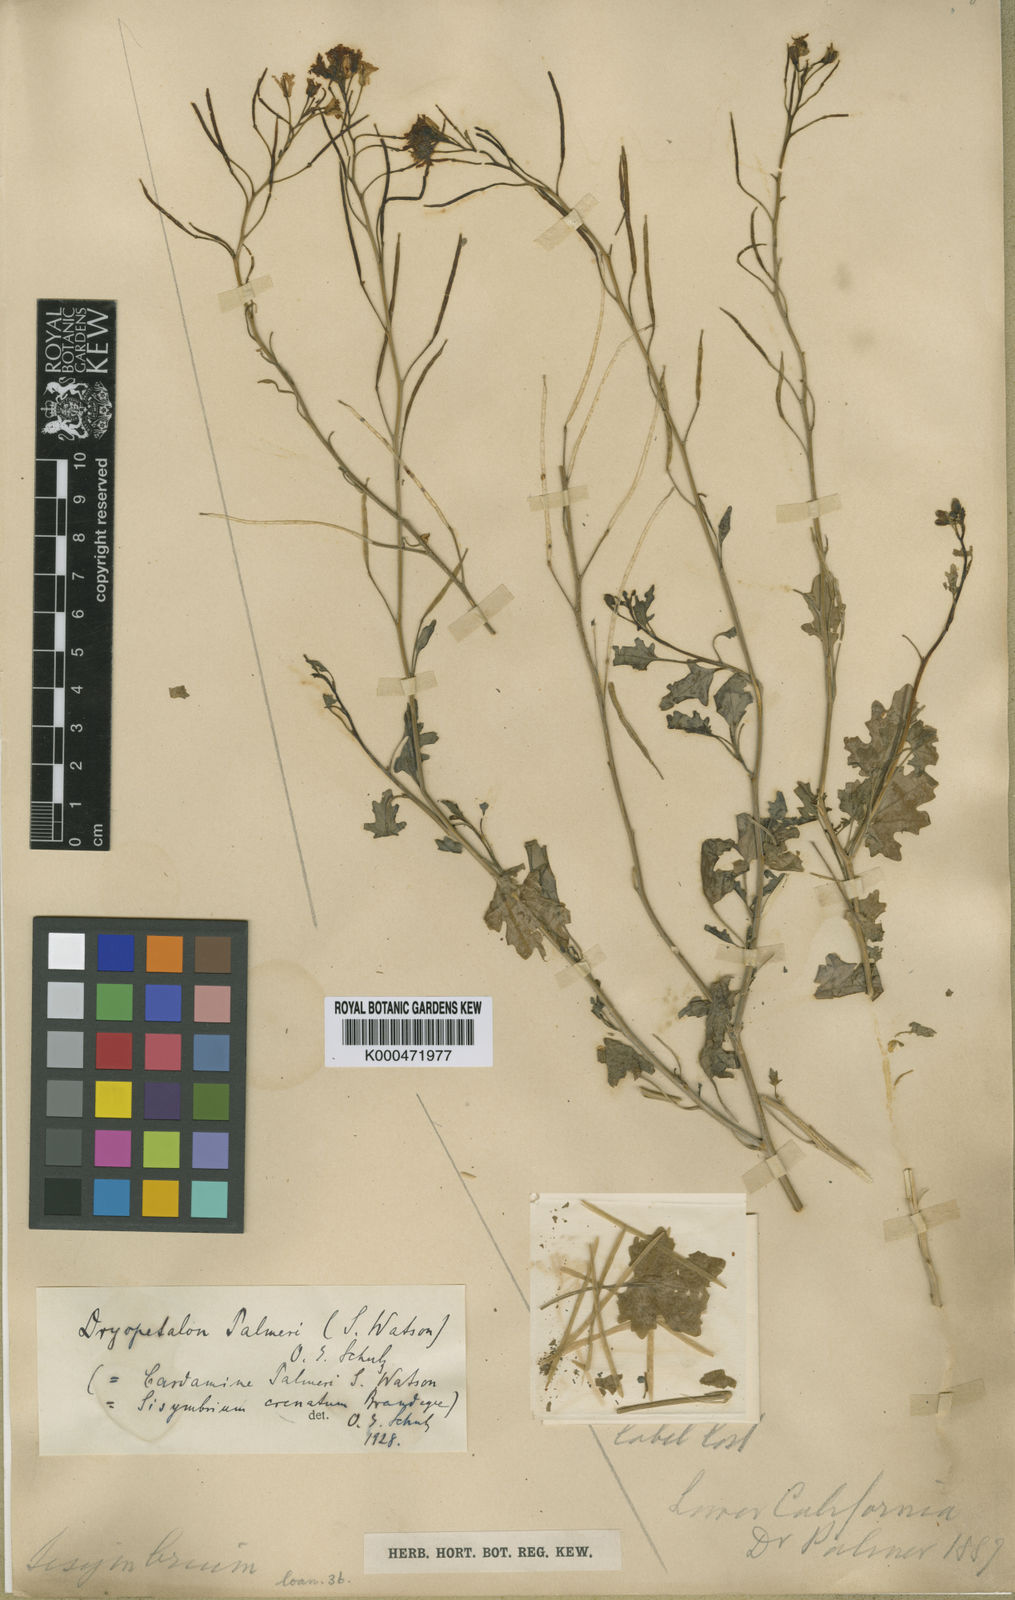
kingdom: Plantae
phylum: Tracheophyta
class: Magnoliopsida
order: Brassicales
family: Brassicaceae
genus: Dryopetalon
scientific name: Dryopetalon palmeri
